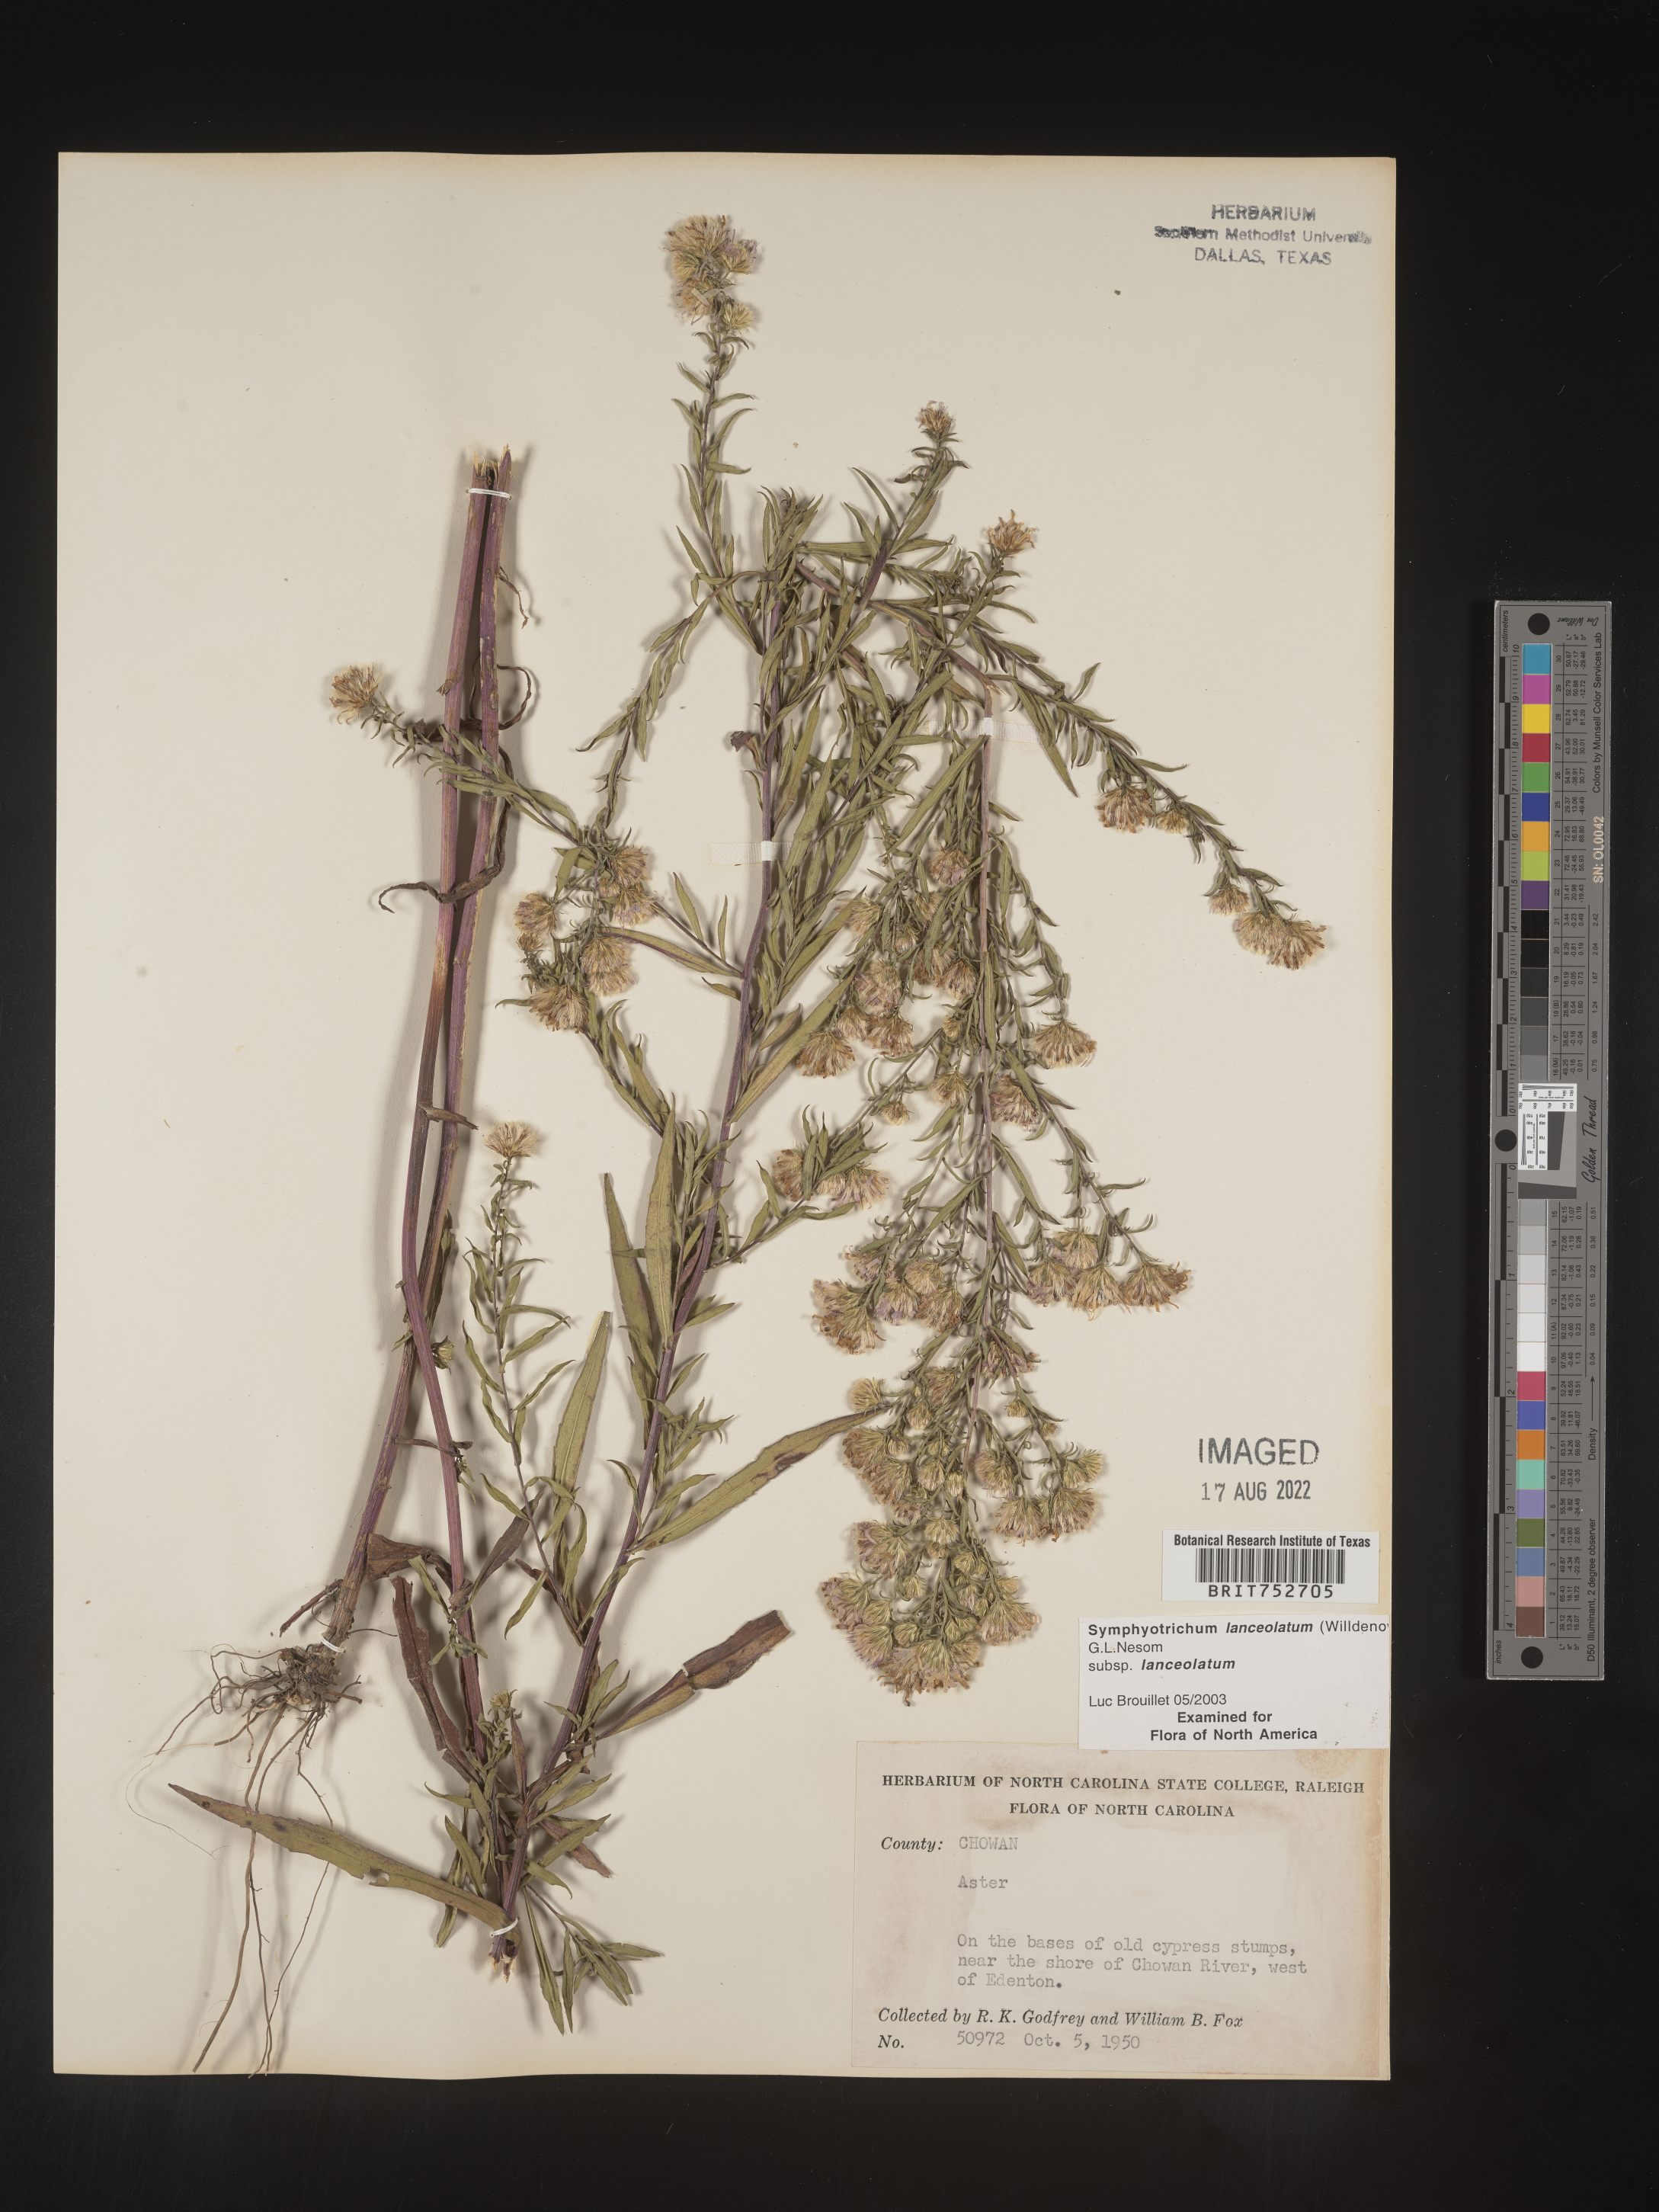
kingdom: Plantae
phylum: Tracheophyta
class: Magnoliopsida
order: Asterales
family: Asteraceae
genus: Symphyotrichum
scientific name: Symphyotrichum lanceolatum
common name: Panicled aster
